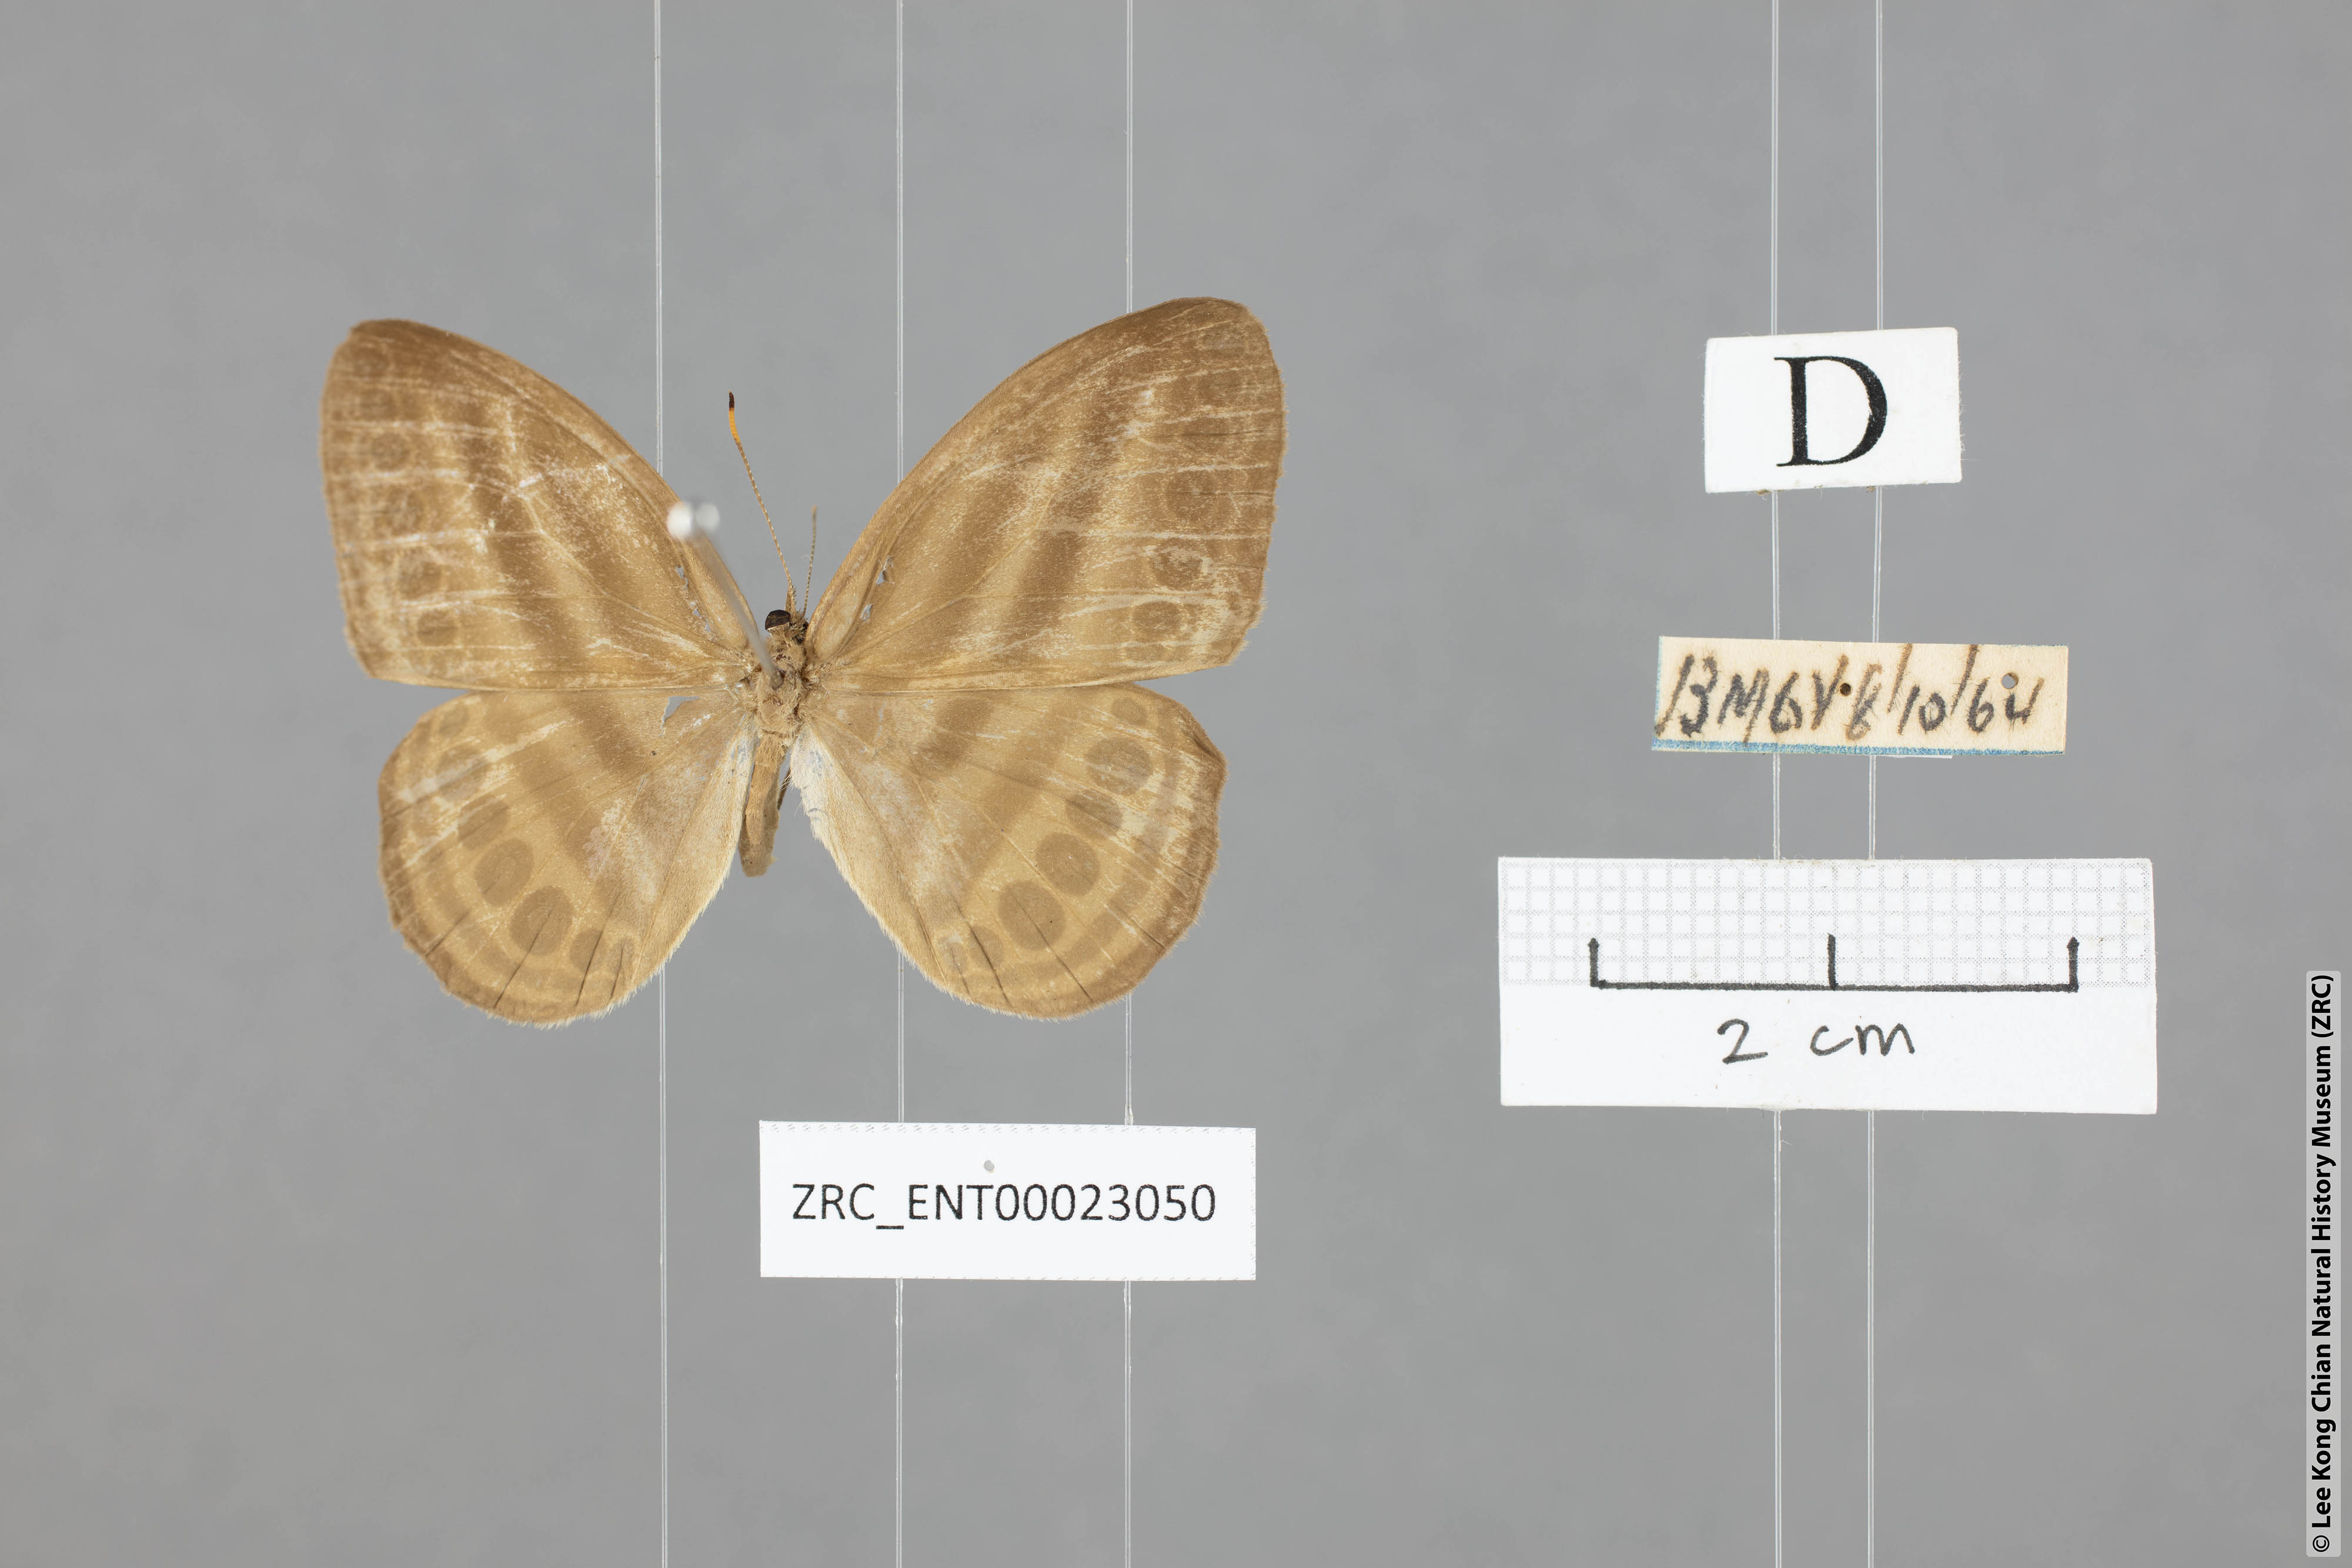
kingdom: Animalia
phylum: Arthropoda
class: Insecta
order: Lepidoptera
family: Nymphalidae
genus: Ragadia
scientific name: Ragadia makata
